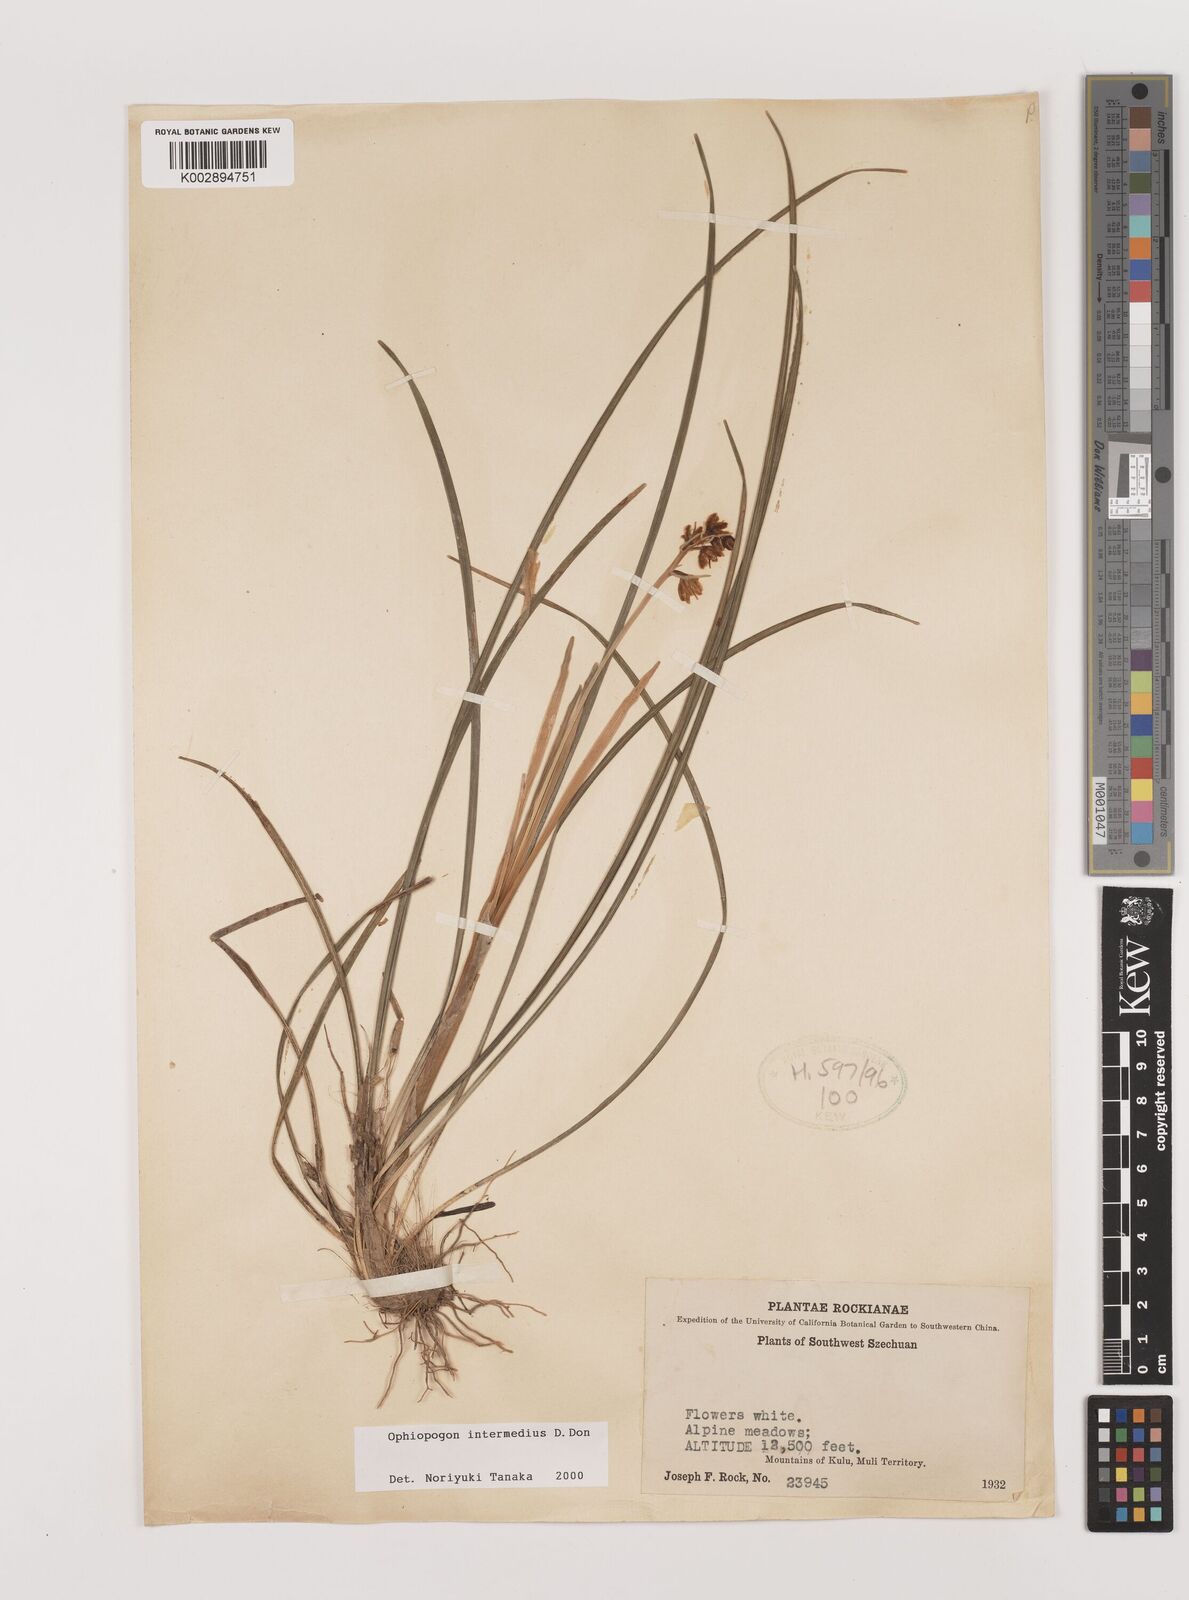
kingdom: Plantae
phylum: Tracheophyta
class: Liliopsida
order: Asparagales
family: Asparagaceae
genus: Ophiopogon
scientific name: Ophiopogon intermedius
